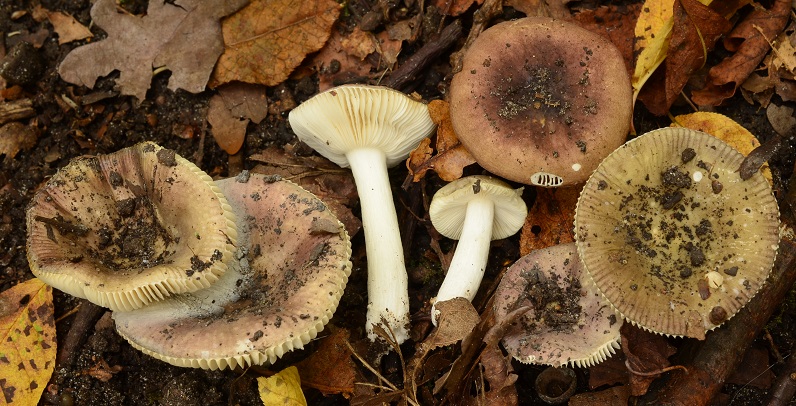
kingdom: Fungi
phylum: Basidiomycota
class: Agaricomycetes
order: Russulales
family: Russulaceae
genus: Russula
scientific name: Russula pelargonia
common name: pelargonie-skørhat
